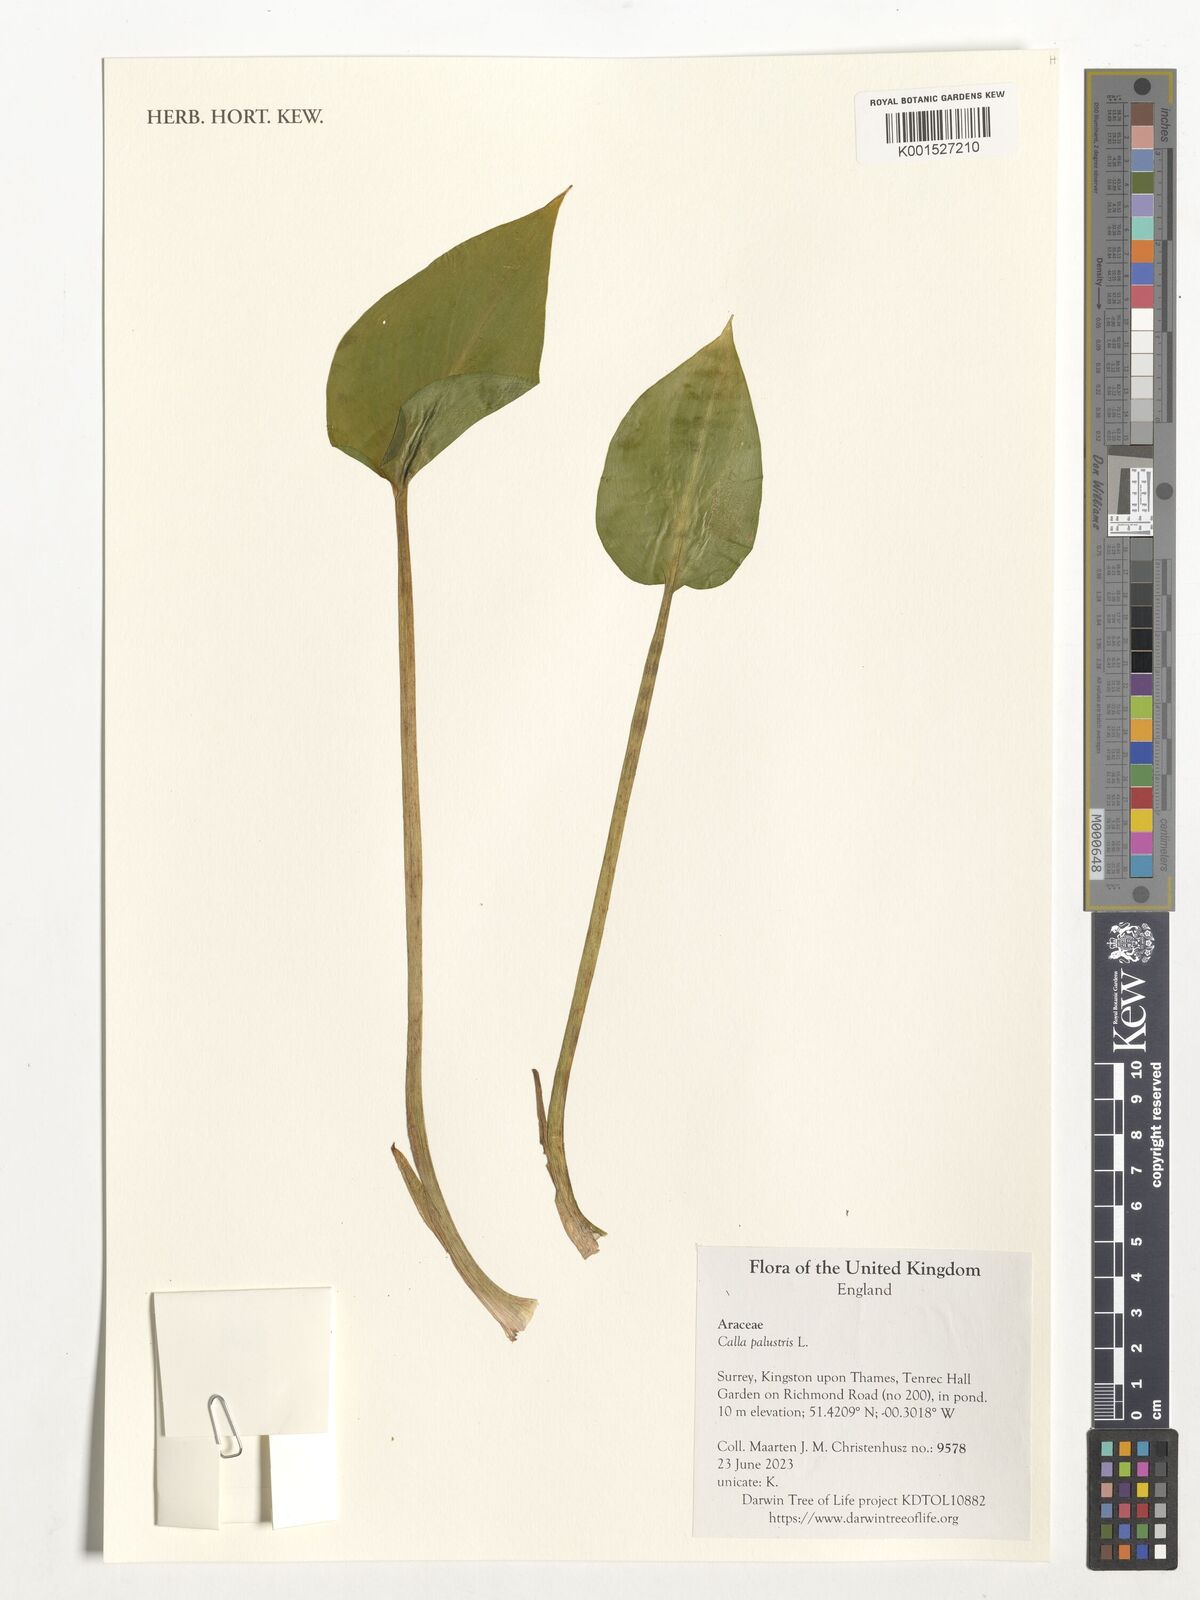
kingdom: Plantae
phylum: Tracheophyta
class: Liliopsida
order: Alismatales
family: Araceae
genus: Calla
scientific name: Calla palustris
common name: Bog arum
